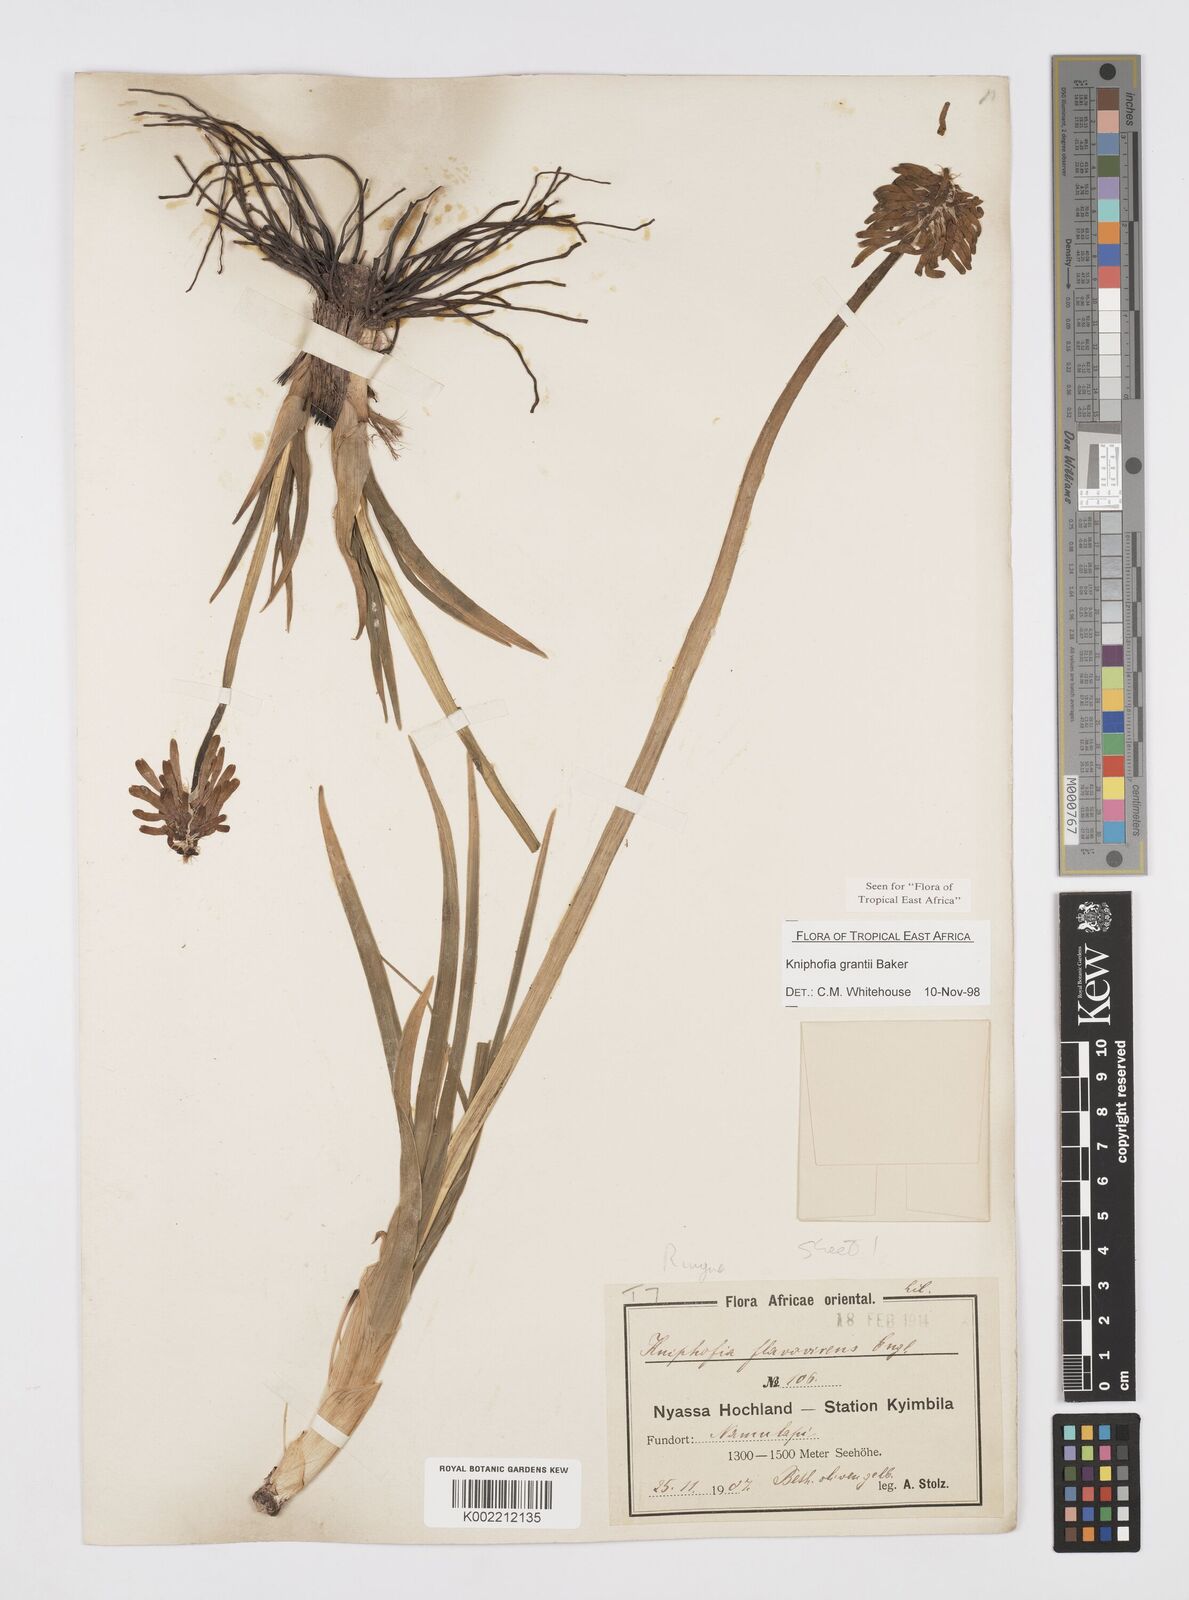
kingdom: Plantae
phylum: Tracheophyta
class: Liliopsida
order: Asparagales
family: Asphodelaceae
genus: Kniphofia
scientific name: Kniphofia grantii
